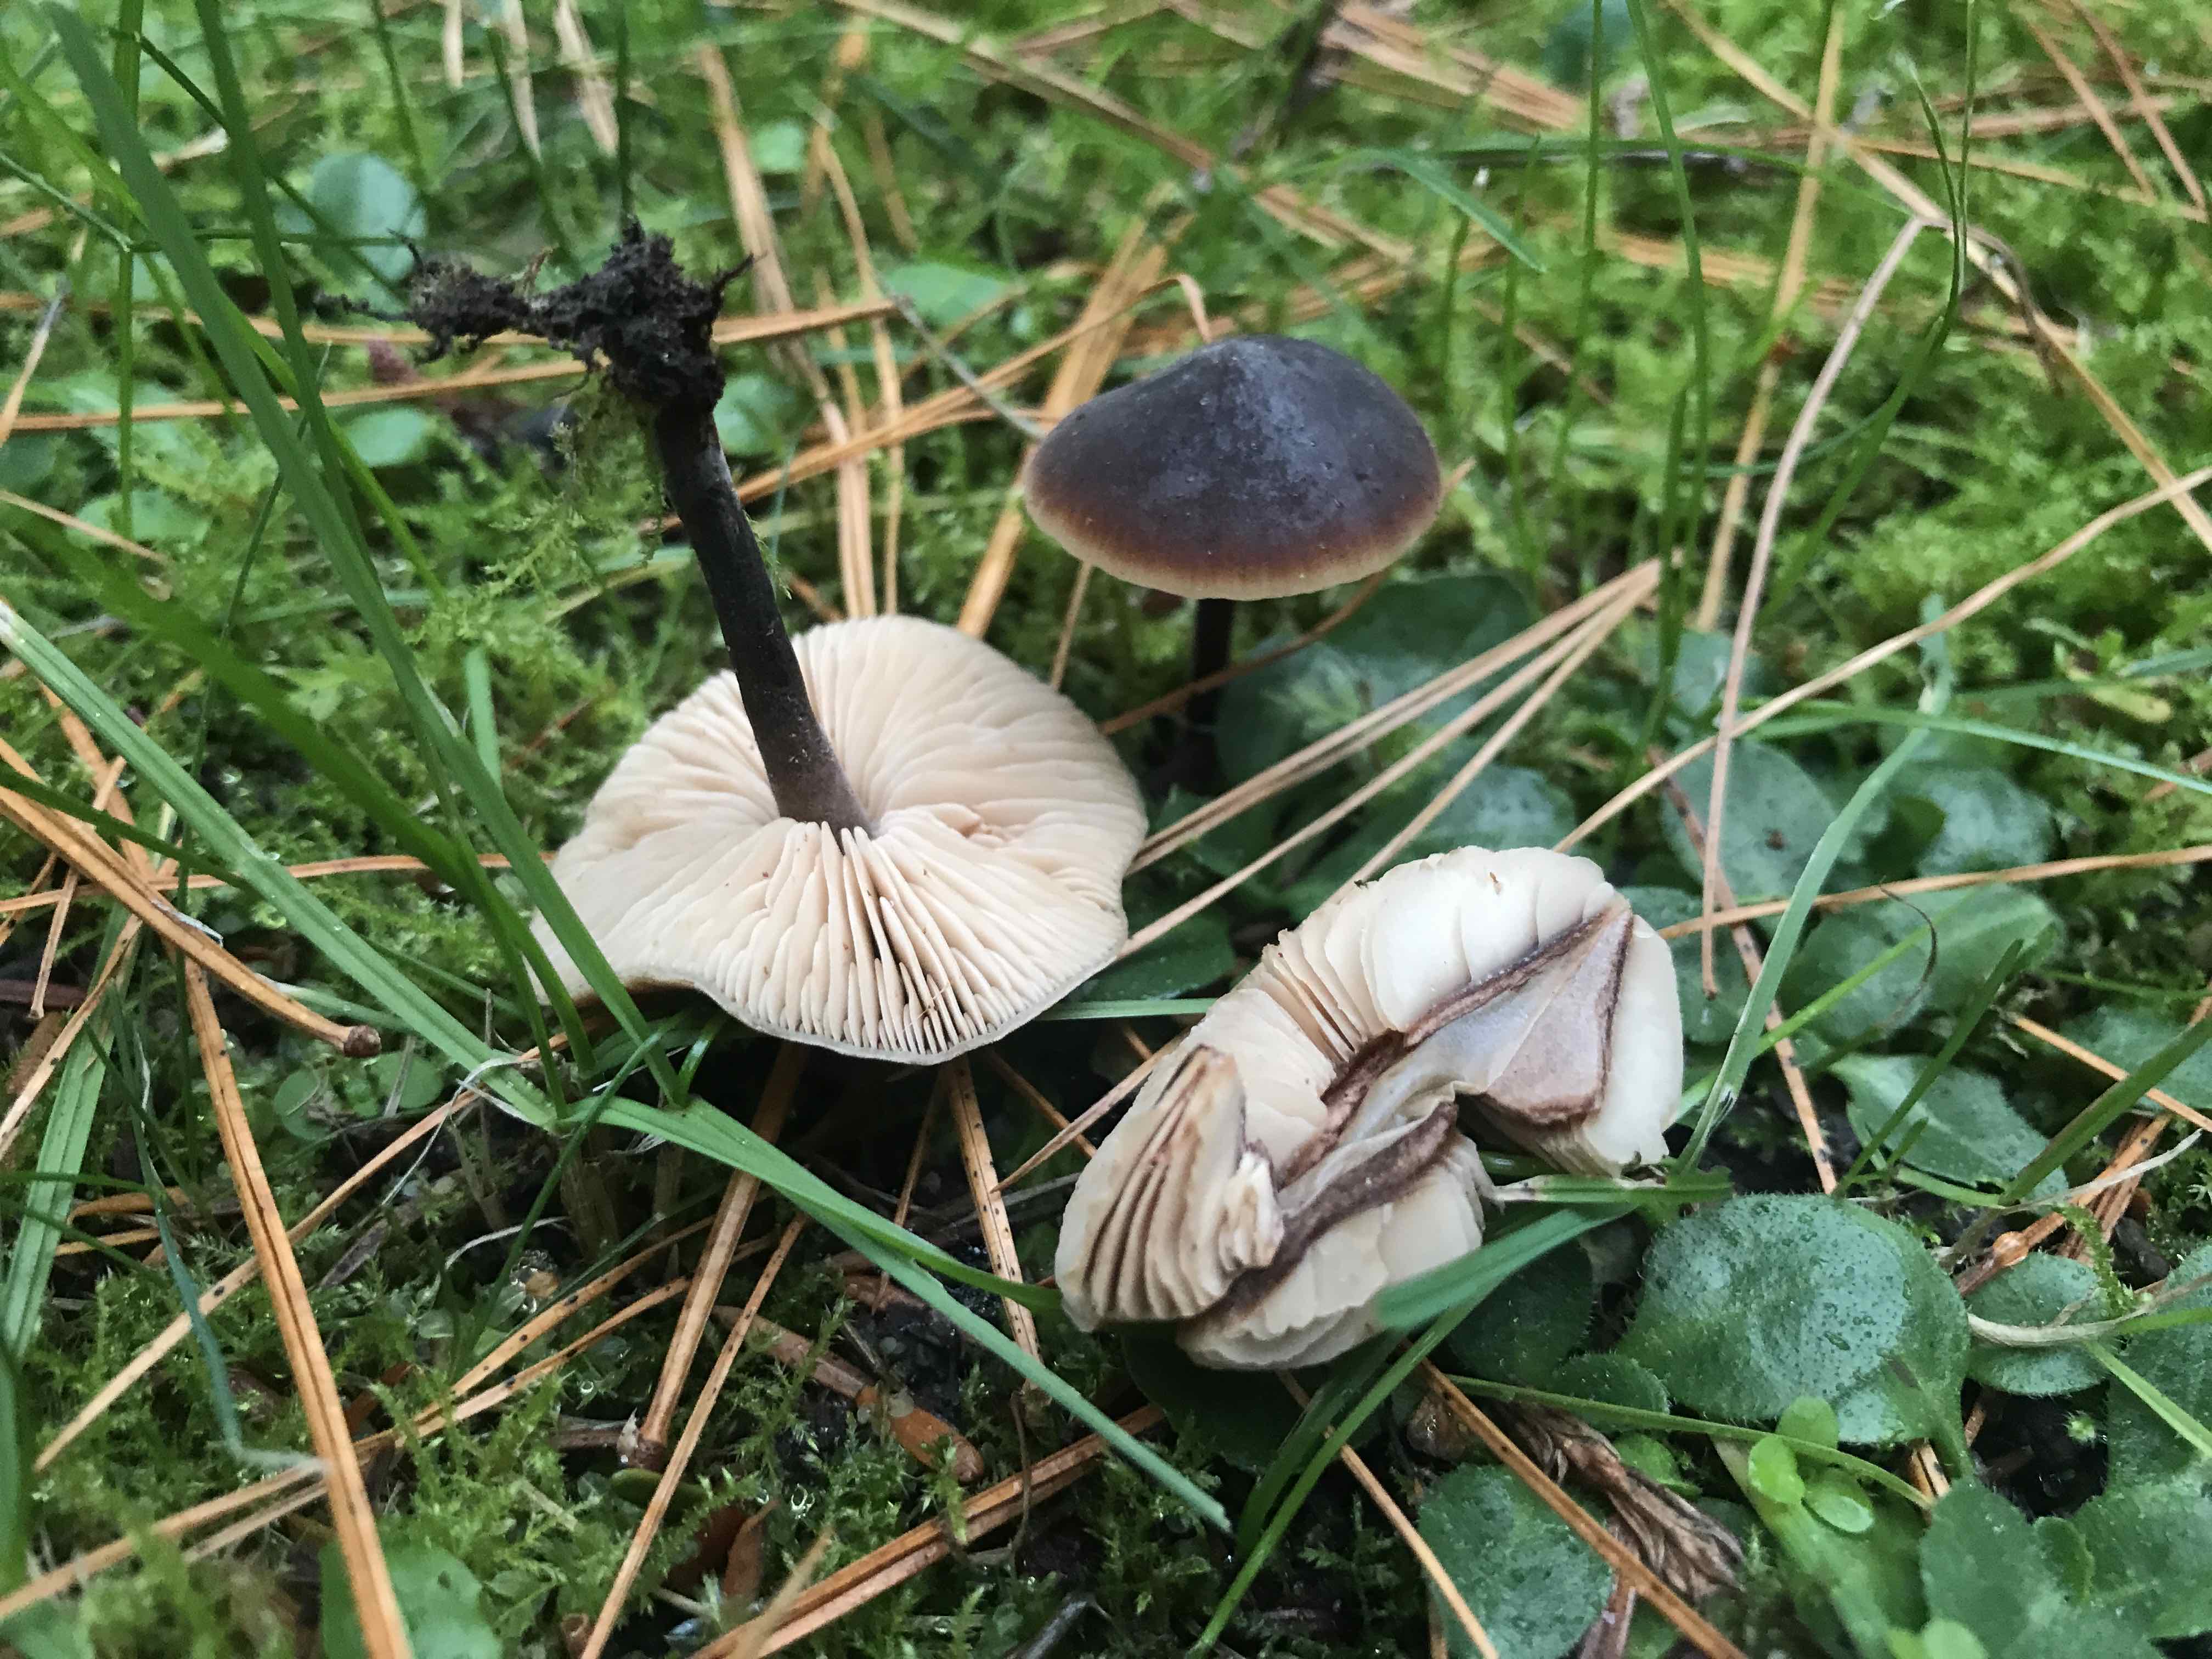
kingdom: Fungi
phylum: Basidiomycota
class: Agaricomycetes
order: Agaricales
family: Macrocystidiaceae
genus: Macrocystidia
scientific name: Macrocystidia cucumis
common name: agurkehat
